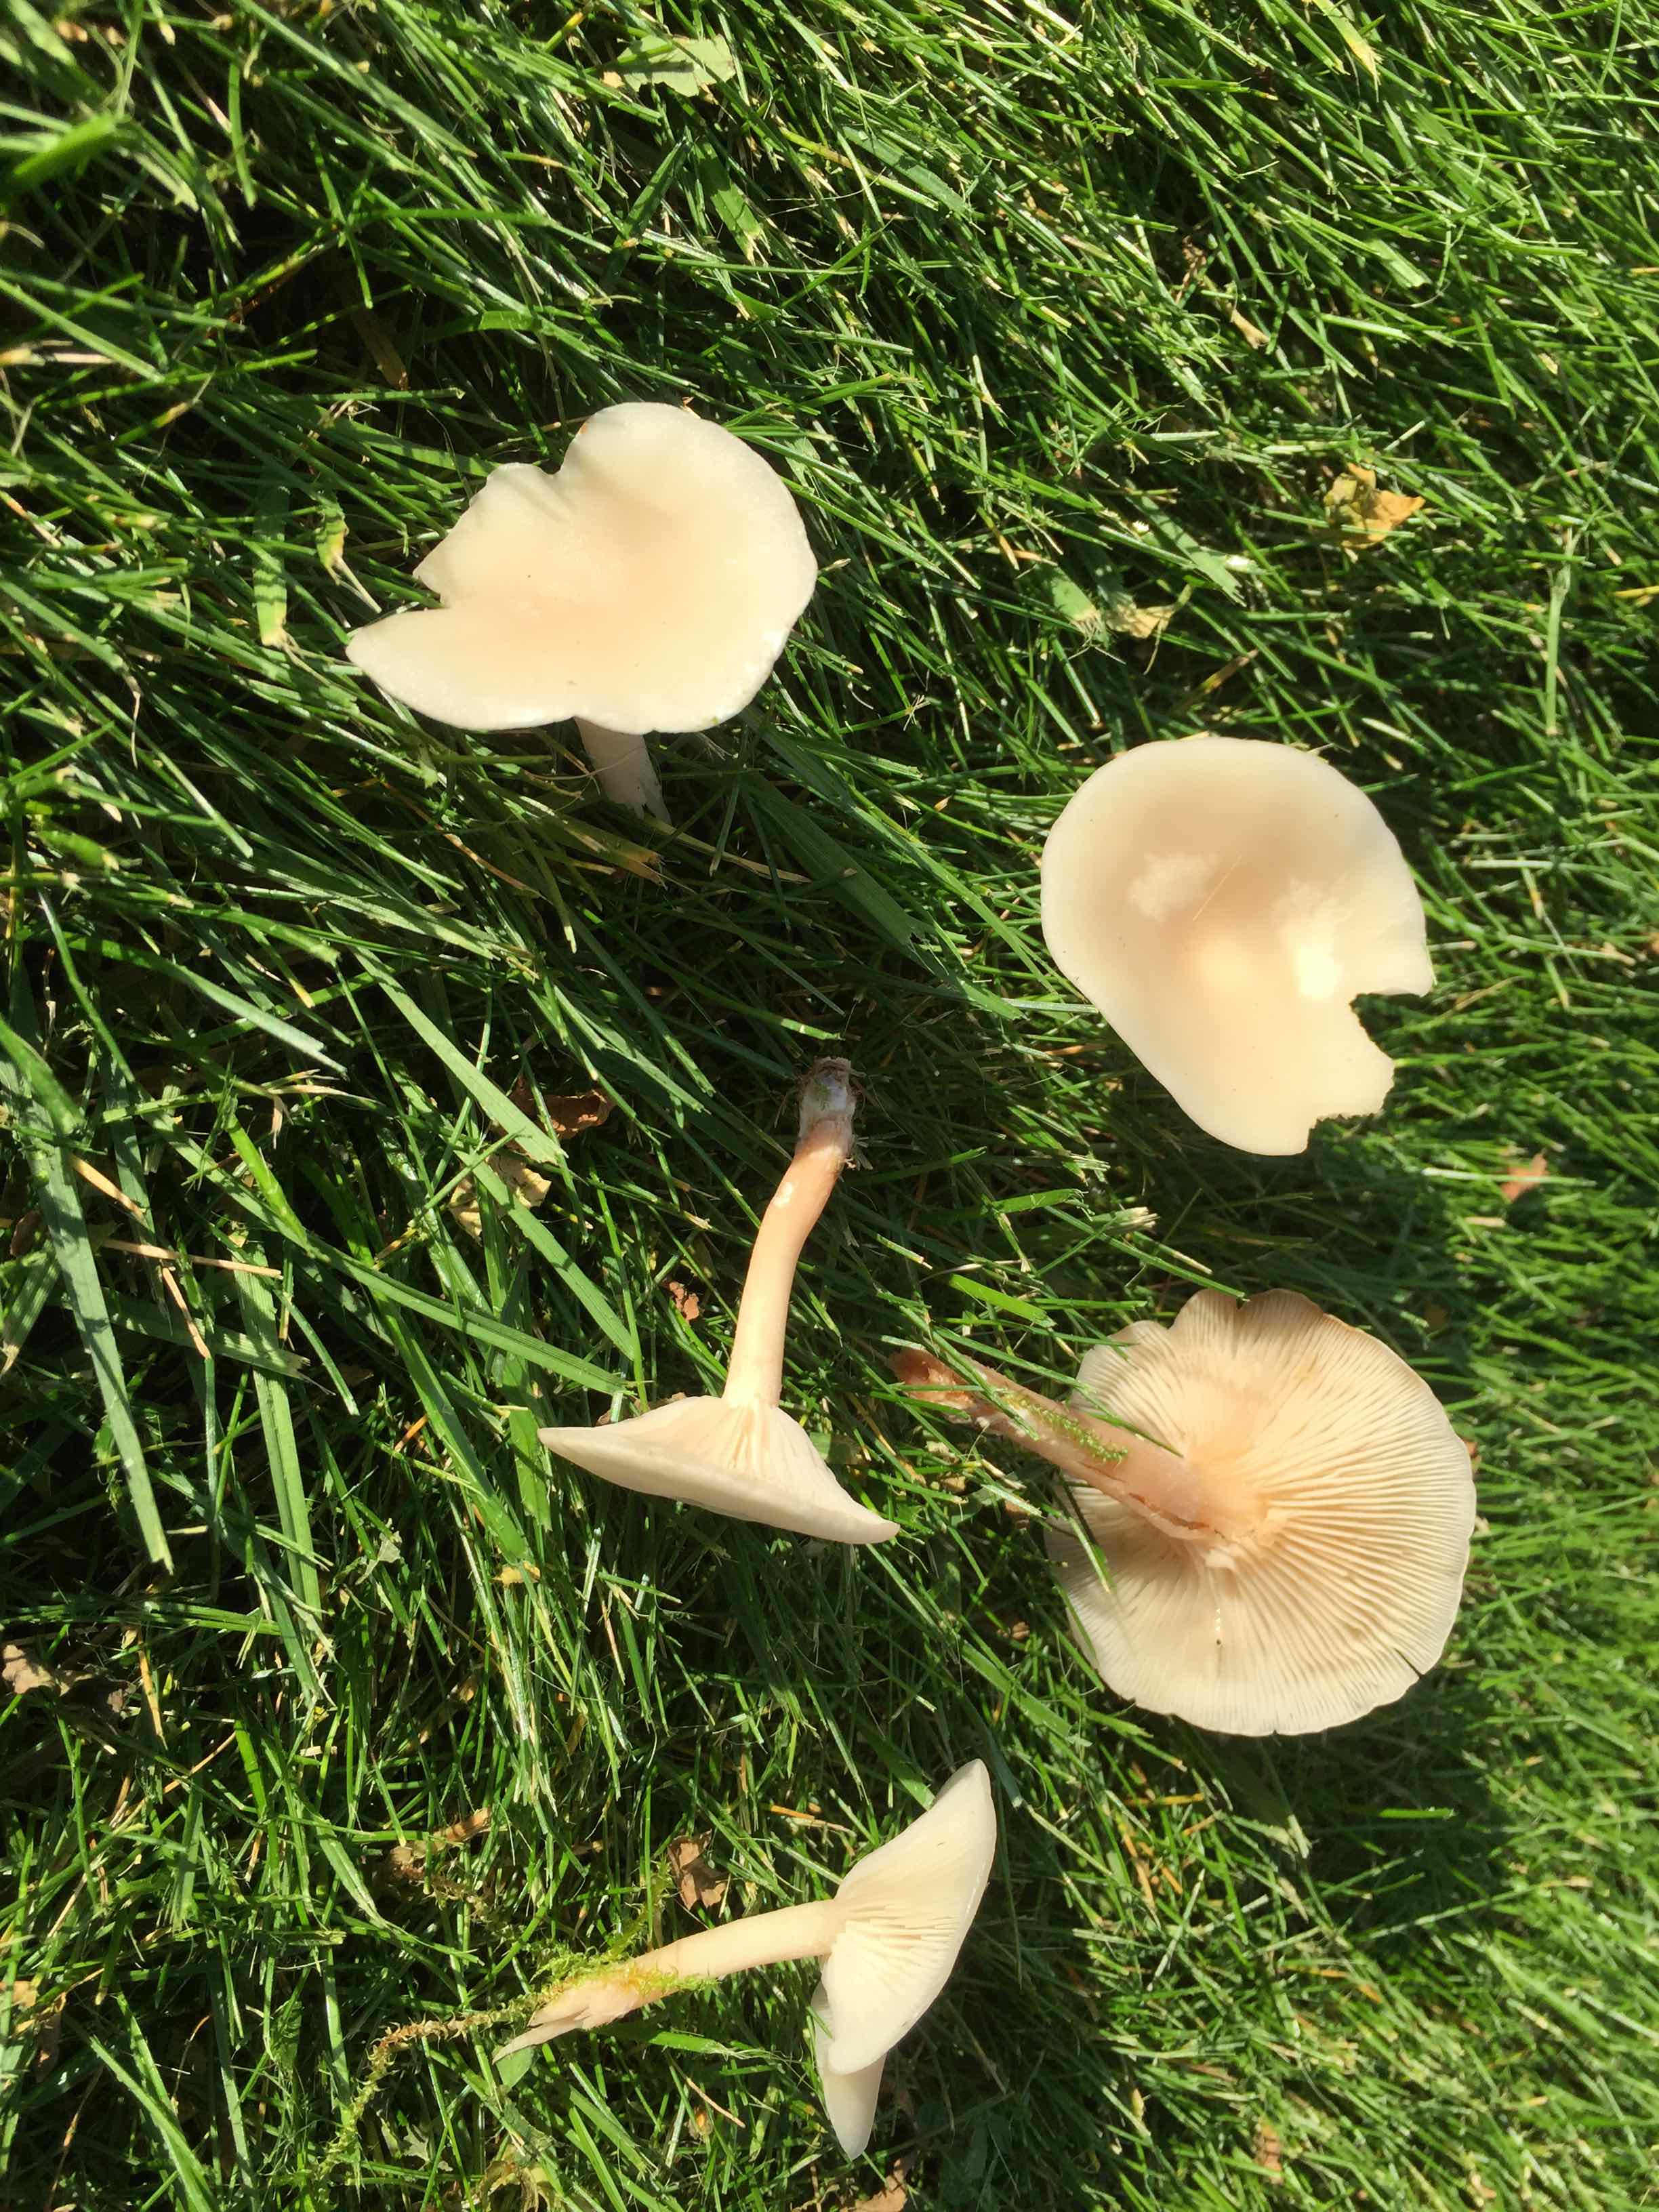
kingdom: Fungi
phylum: Basidiomycota
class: Agaricomycetes
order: Agaricales
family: Tricholomataceae
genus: Clitocybe
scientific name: Clitocybe
